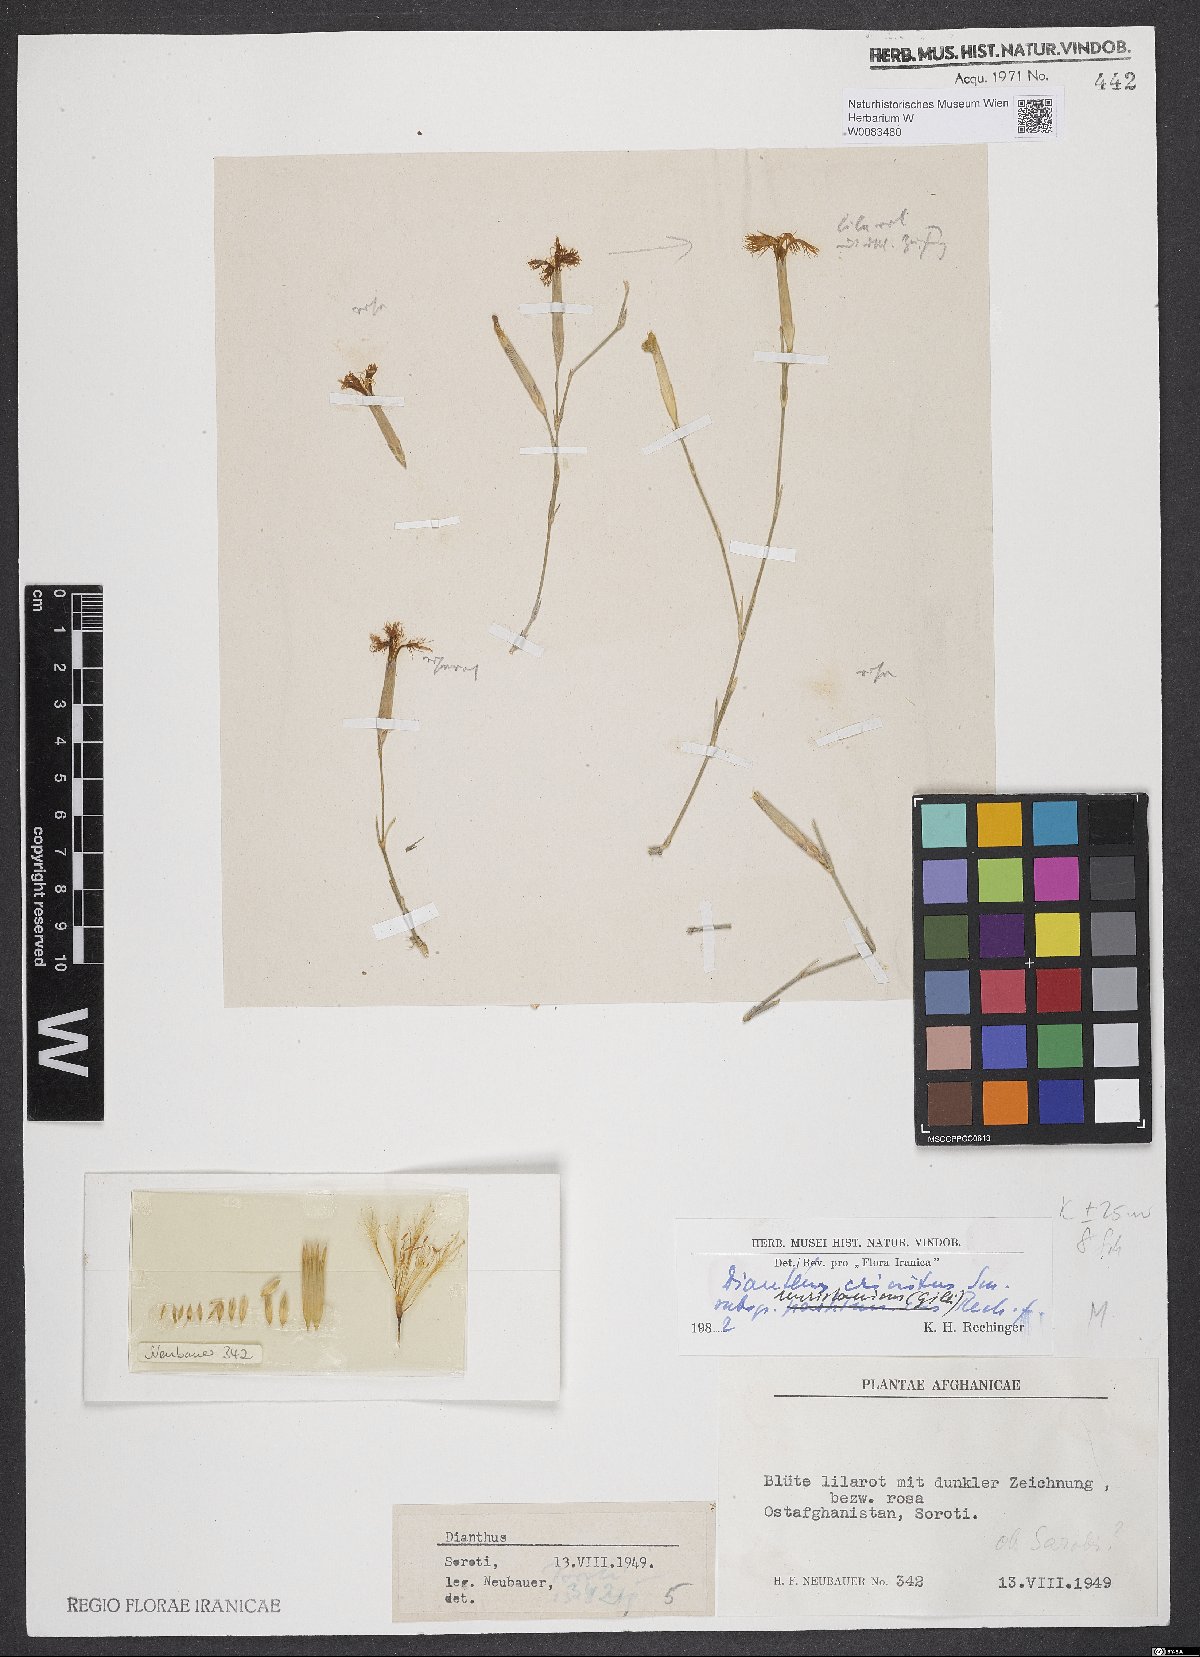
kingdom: Plantae
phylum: Tracheophyta
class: Magnoliopsida
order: Caryophyllales
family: Caryophyllaceae
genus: Dianthus
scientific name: Dianthus crinitus
